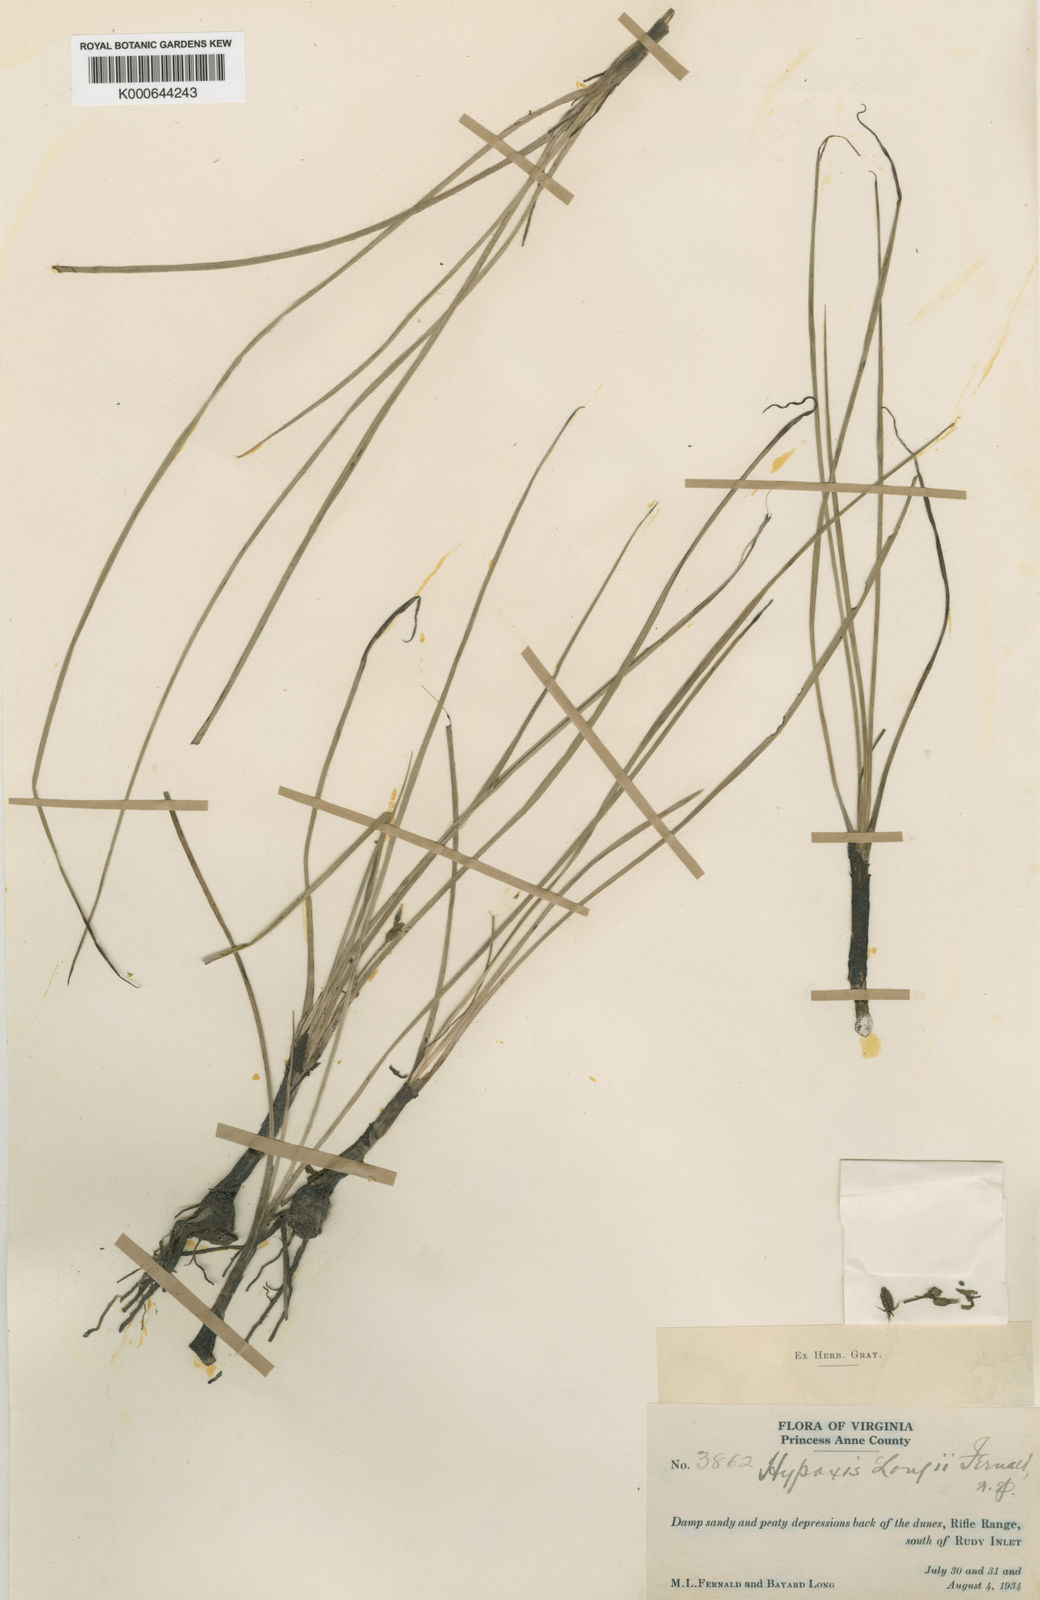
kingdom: Plantae
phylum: Tracheophyta
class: Liliopsida
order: Asparagales
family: Hypoxidaceae
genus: Hypoxis
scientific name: Hypoxis sessilis
